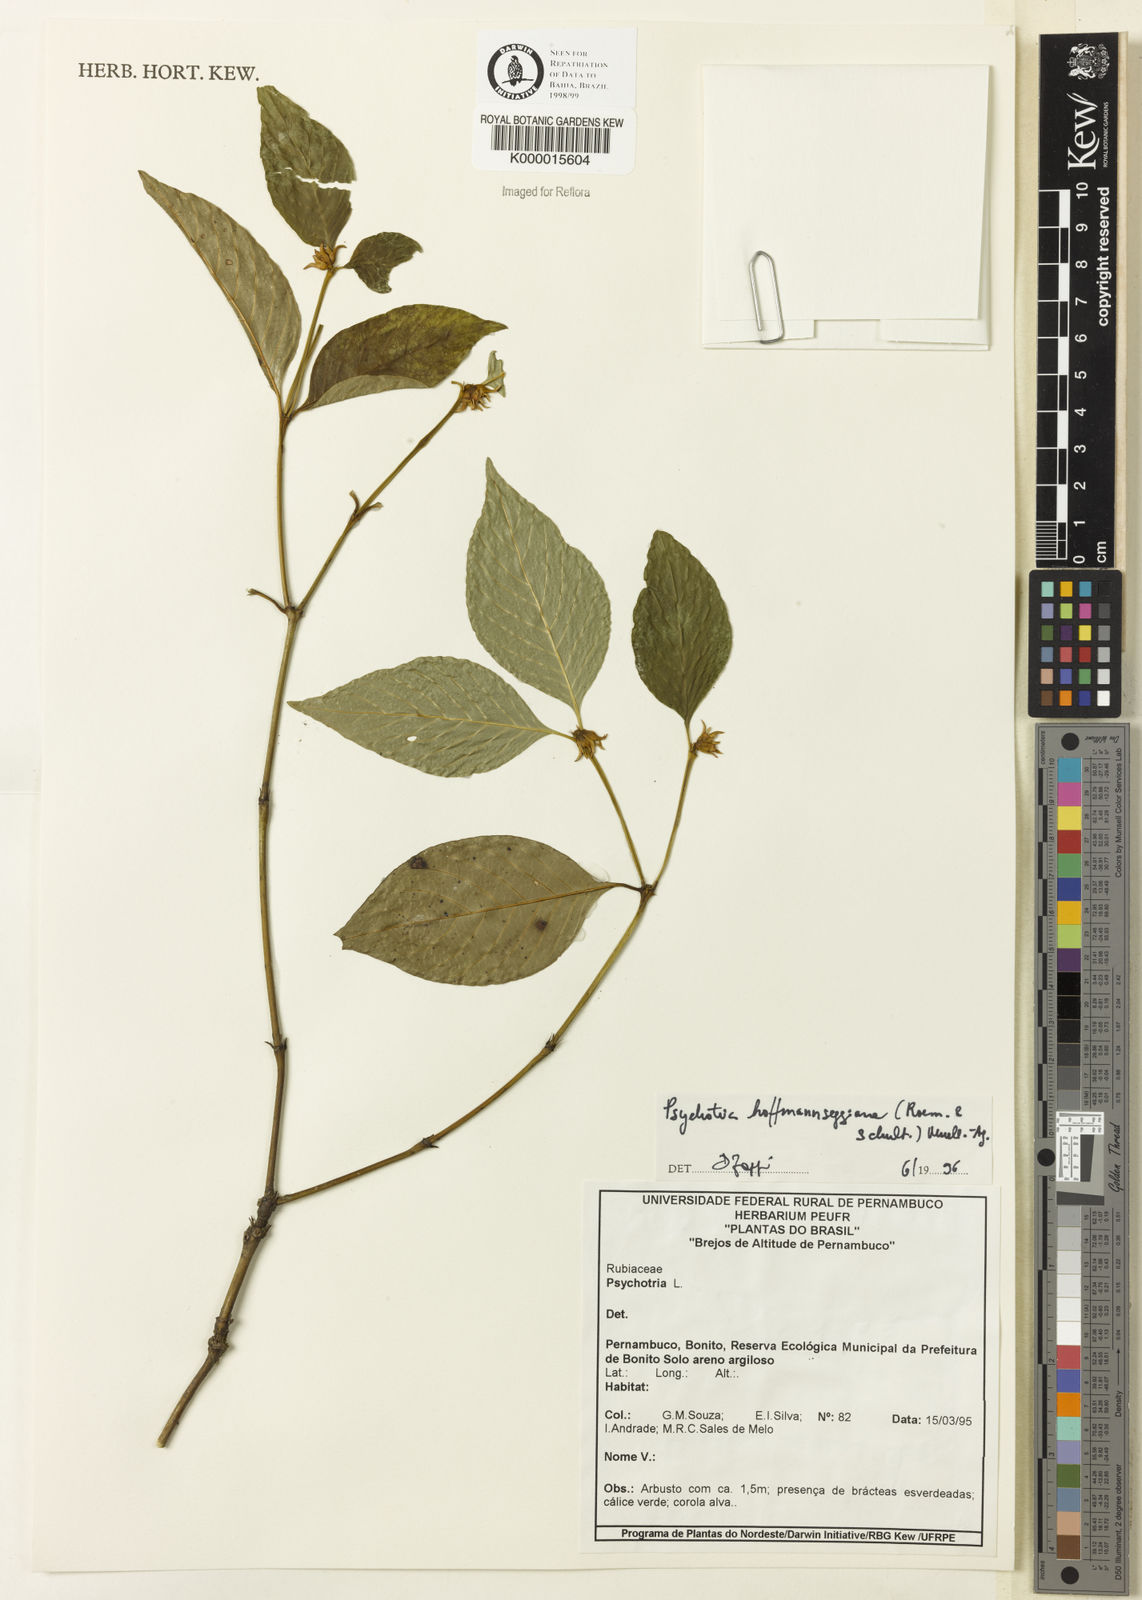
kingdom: Plantae
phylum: Tracheophyta
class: Magnoliopsida
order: Gentianales
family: Rubiaceae
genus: Psychotria
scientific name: Psychotria
